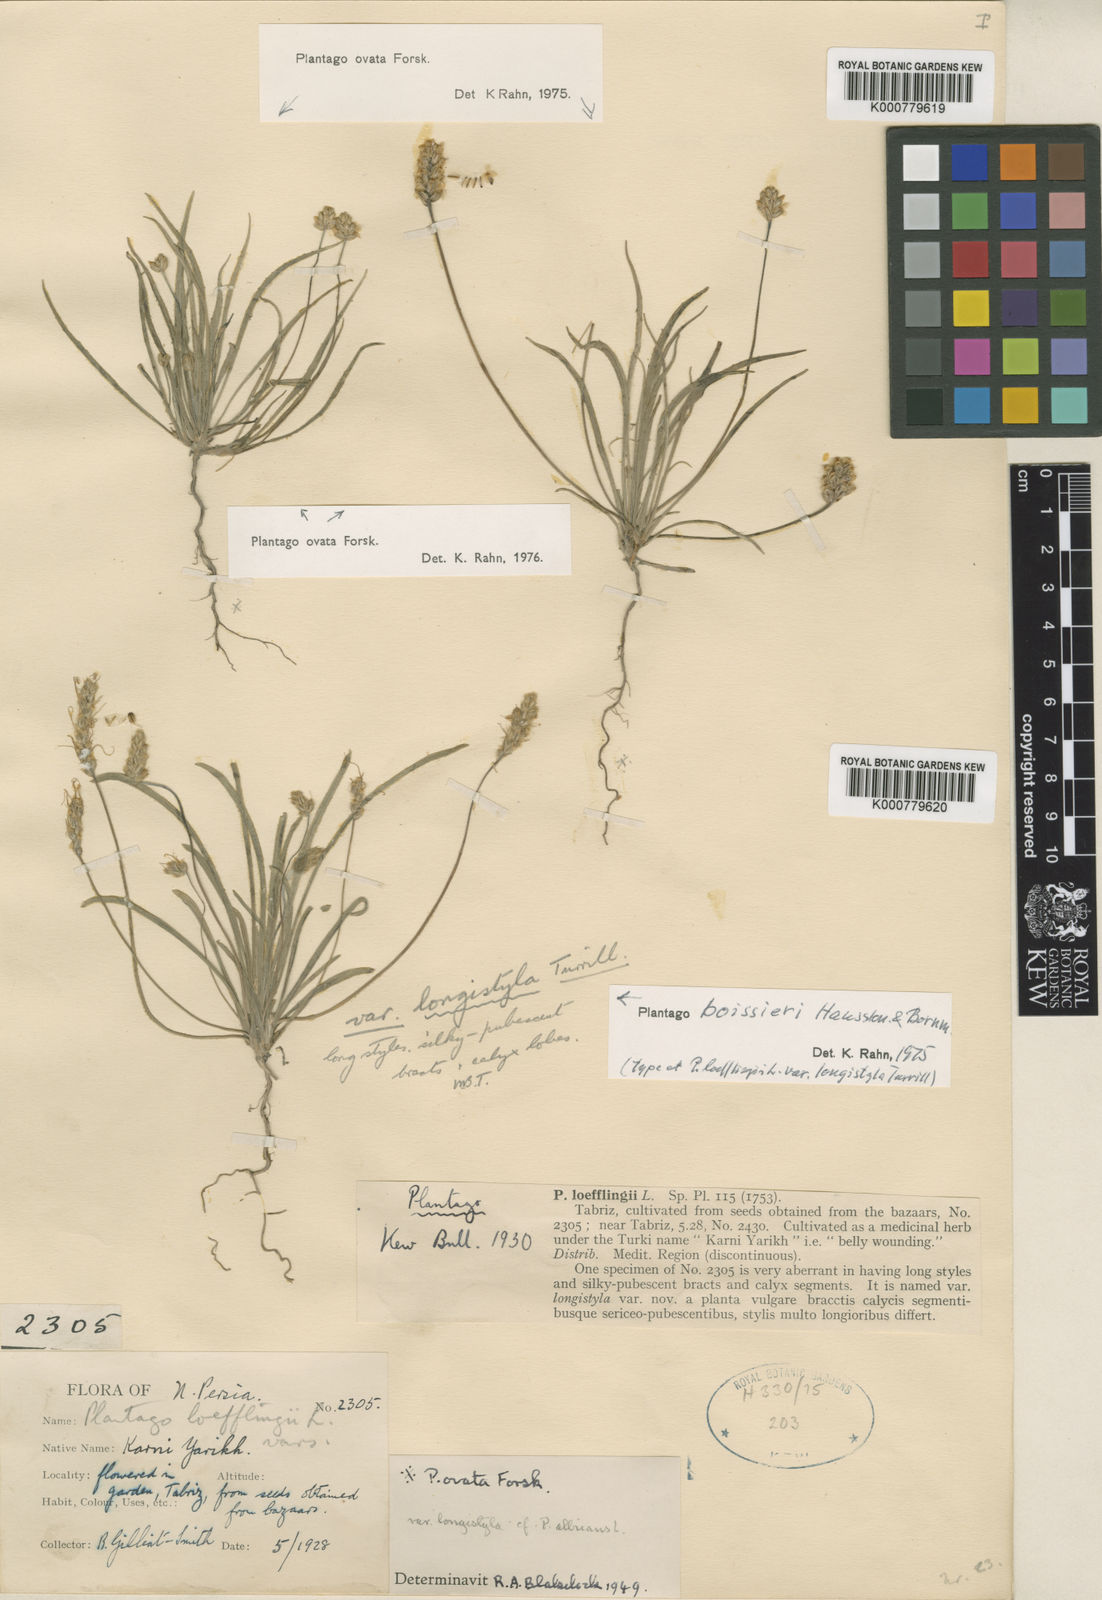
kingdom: Plantae
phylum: Tracheophyta
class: Magnoliopsida
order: Lamiales
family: Plantaginaceae
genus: Plantago
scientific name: Plantago loeflingii
